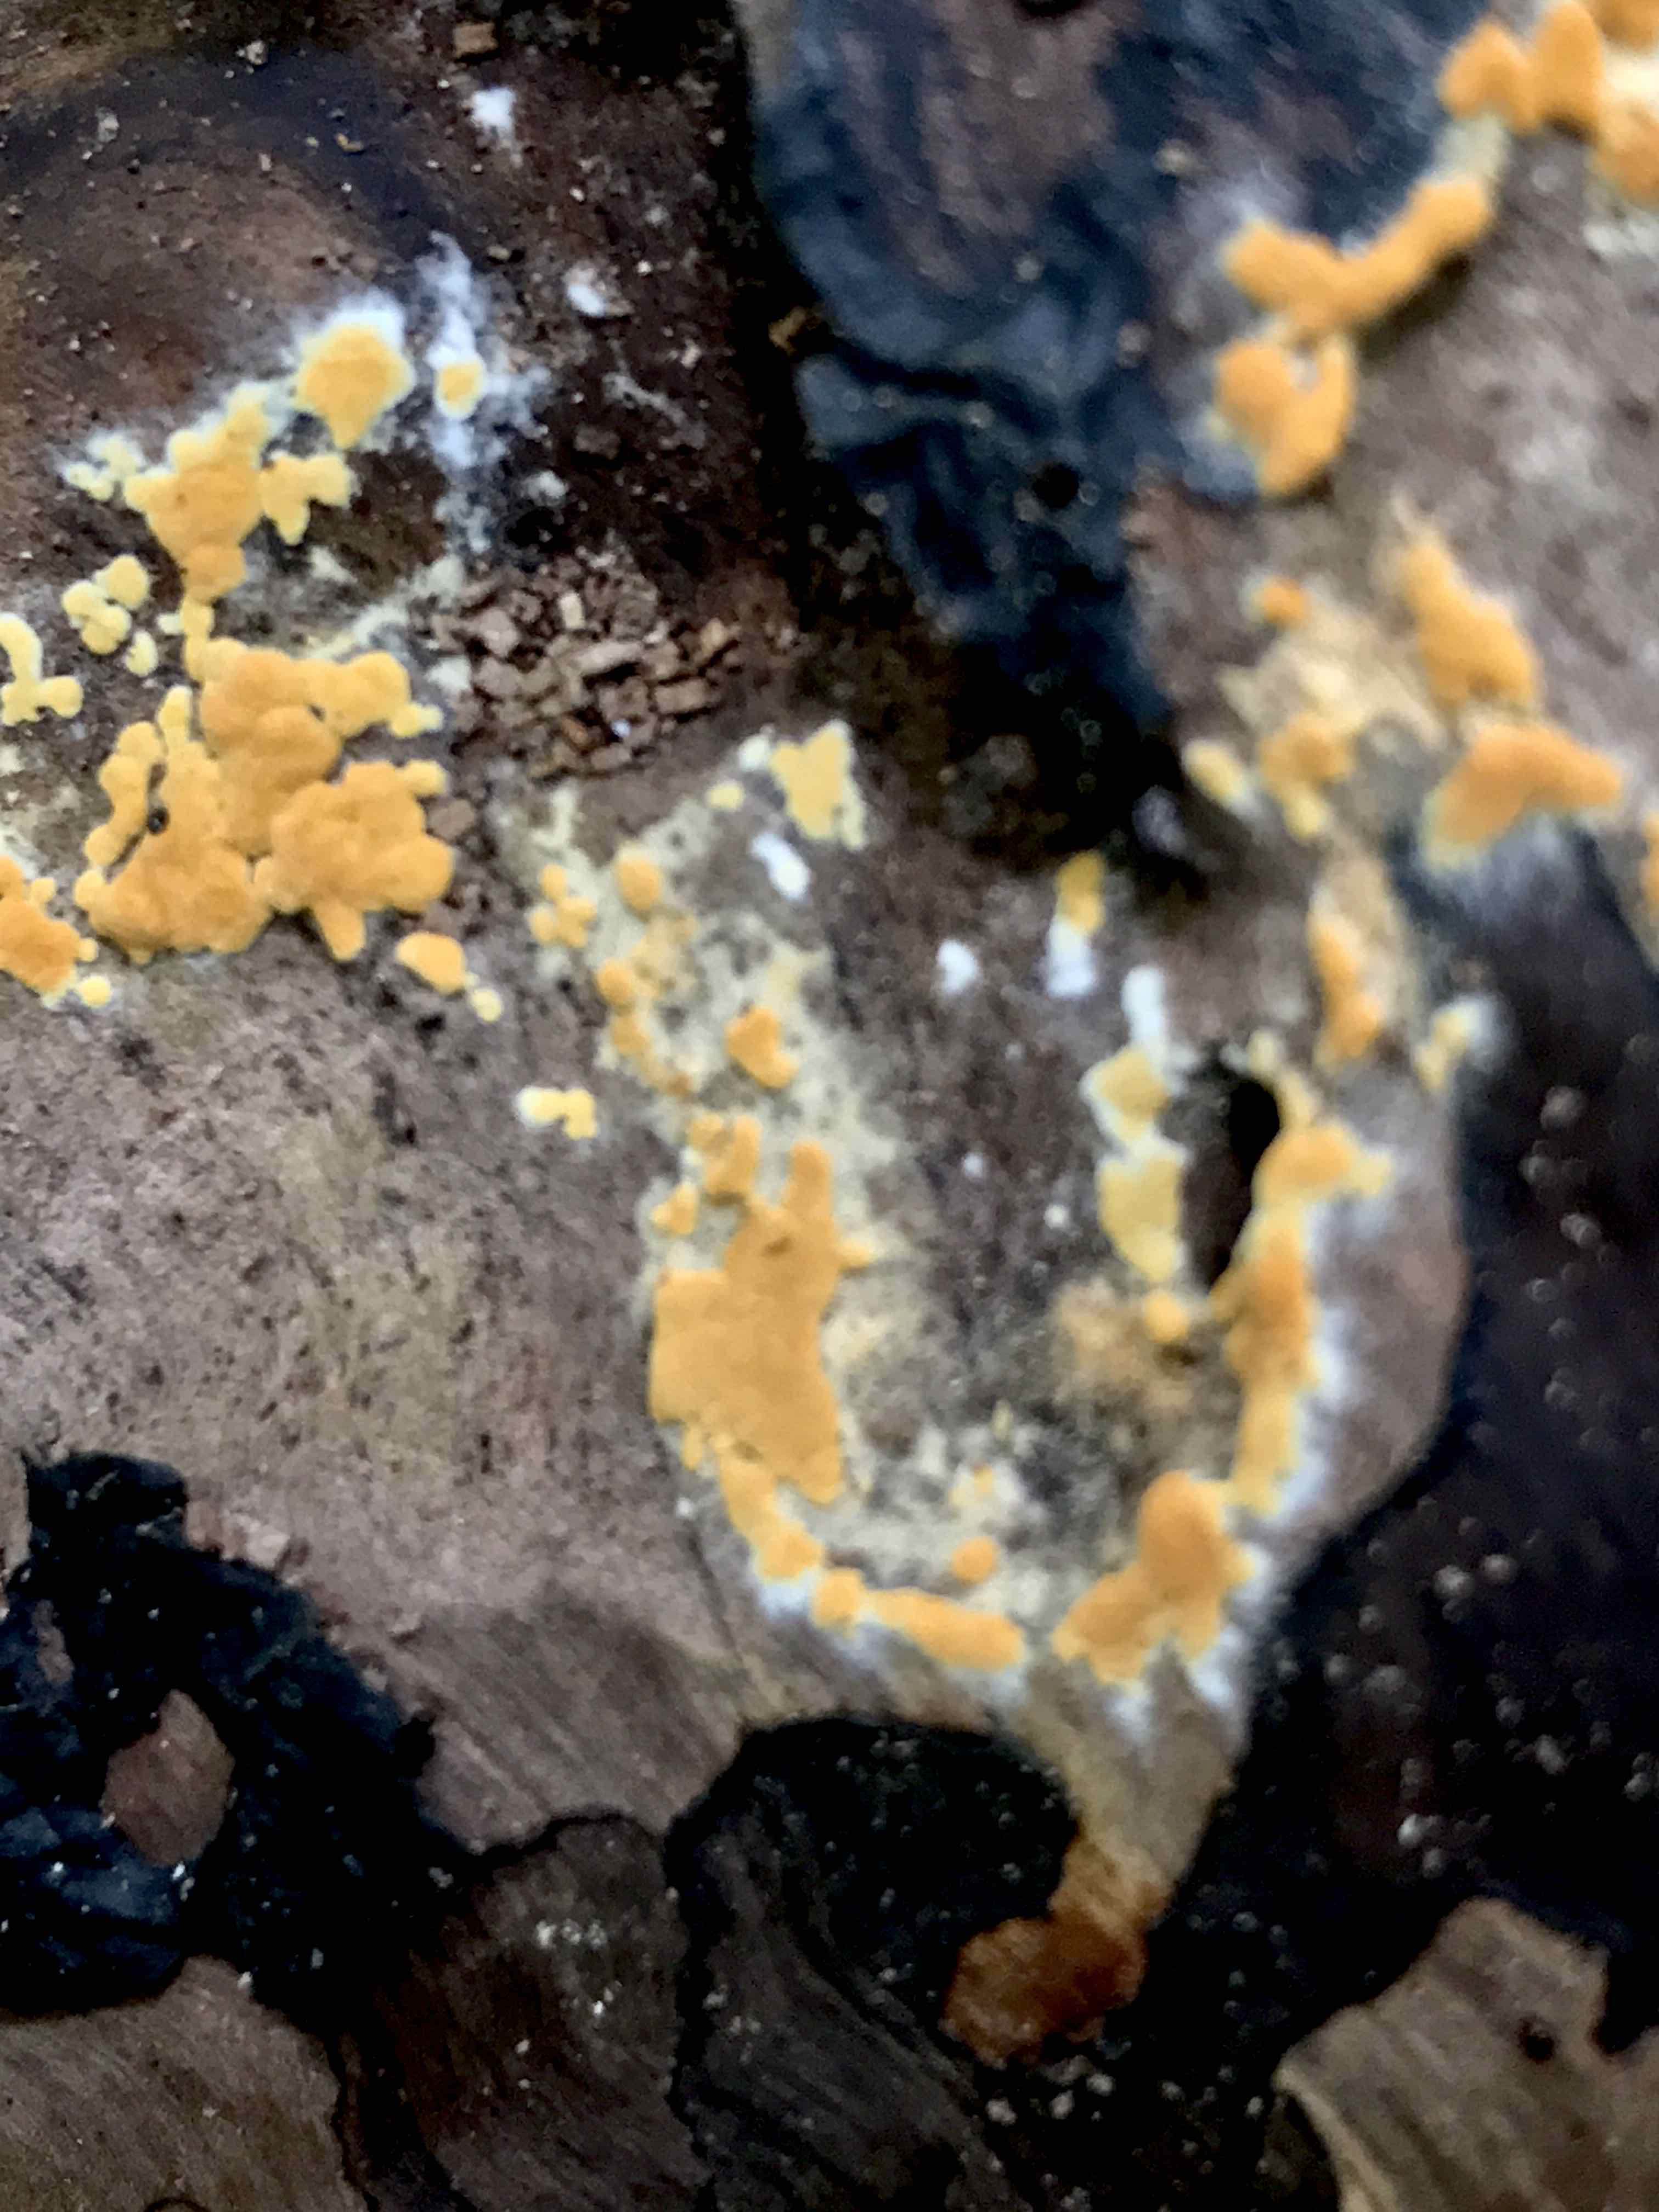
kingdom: Fungi
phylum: Basidiomycota
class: Agaricomycetes
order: Cantharellales
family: Botryobasidiaceae
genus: Botryobasidium
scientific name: Botryobasidium aureum
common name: gylden spindhinde
